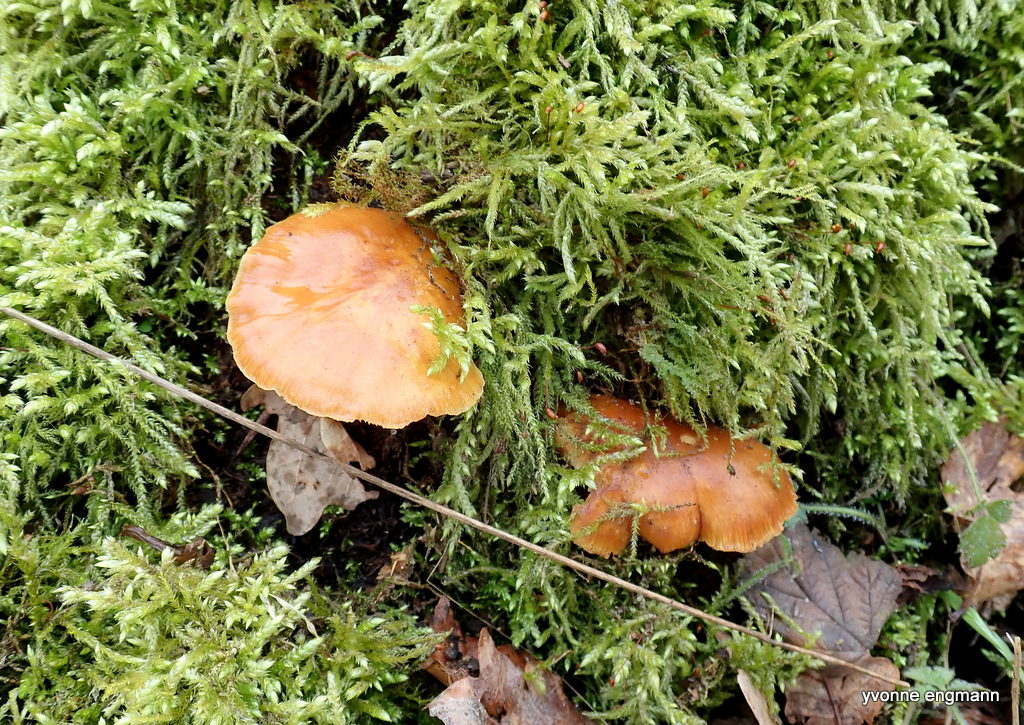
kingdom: Fungi
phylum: Basidiomycota
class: Agaricomycetes
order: Agaricales
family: Physalacriaceae
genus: Flammulina
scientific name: Flammulina
